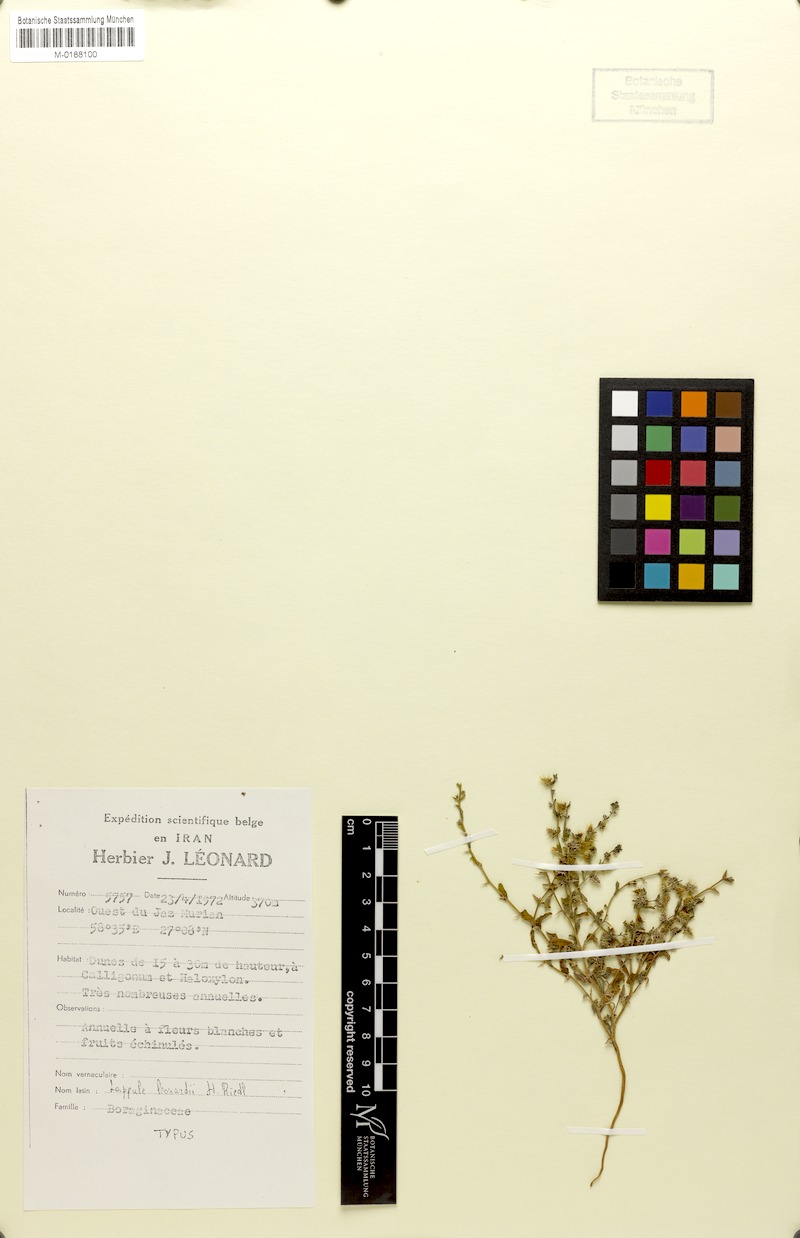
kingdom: Plantae
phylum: Tracheophyta
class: Magnoliopsida
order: Boraginales
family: Boraginaceae
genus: Lappula
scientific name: Lappula leonardii
